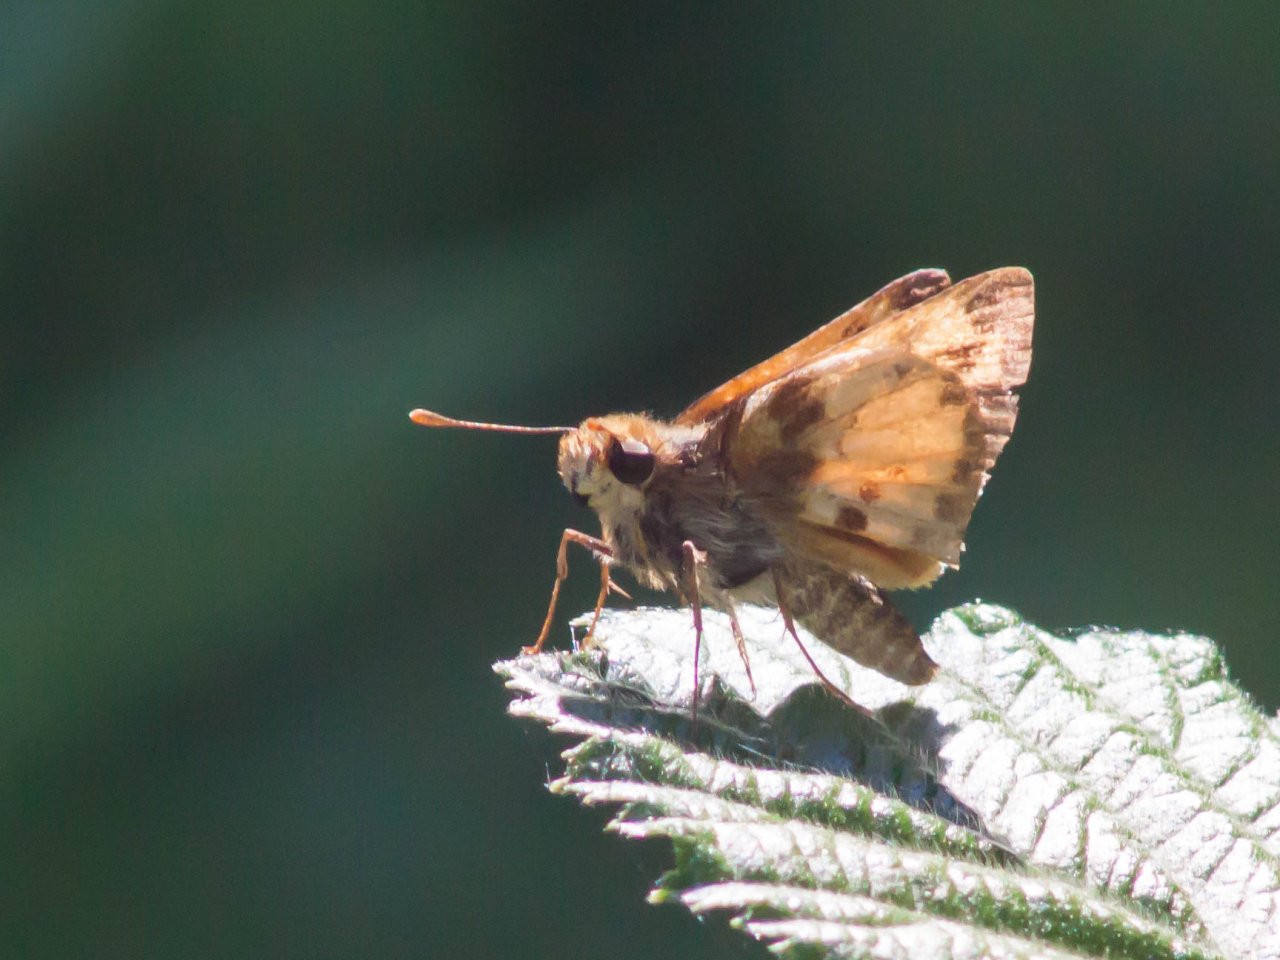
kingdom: Animalia
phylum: Arthropoda
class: Insecta
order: Lepidoptera
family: Hesperiidae
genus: Lon
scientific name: Lon zabulon
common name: Zabulon Skipper
